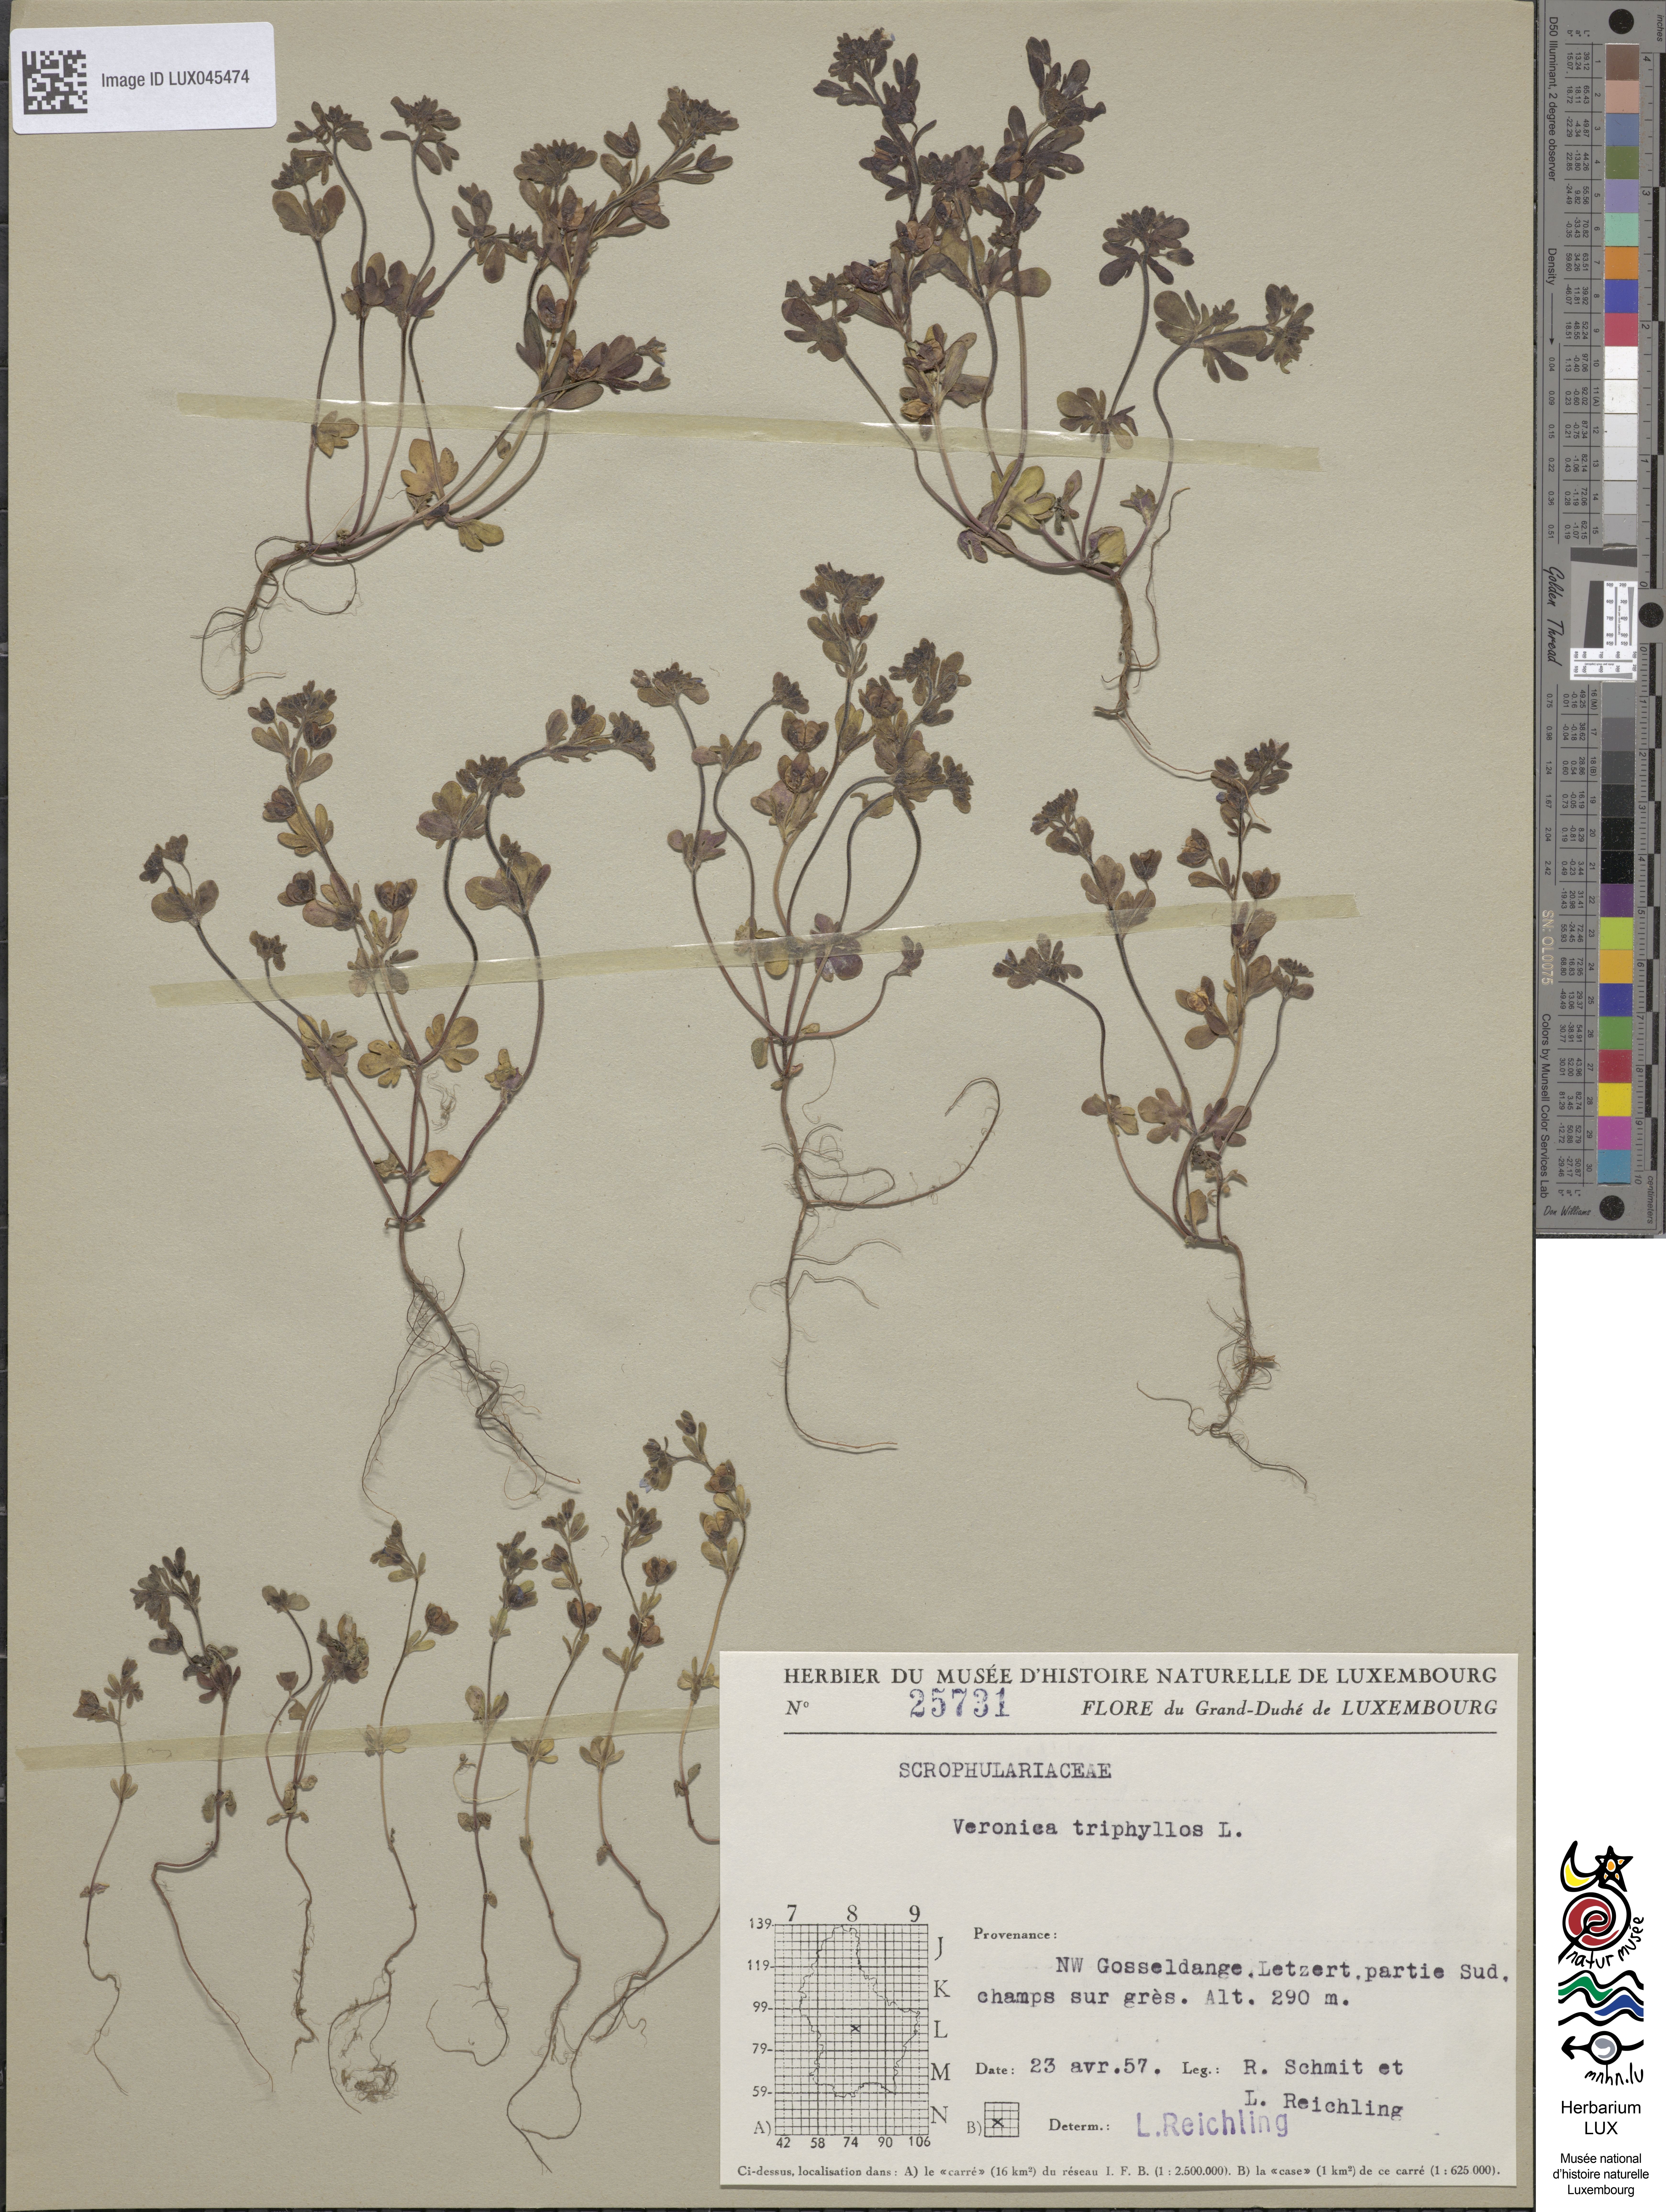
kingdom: Plantae
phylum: Tracheophyta
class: Magnoliopsida
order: Lamiales
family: Plantaginaceae
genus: Veronica
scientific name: Veronica triphyllos
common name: Fingered speedwell
